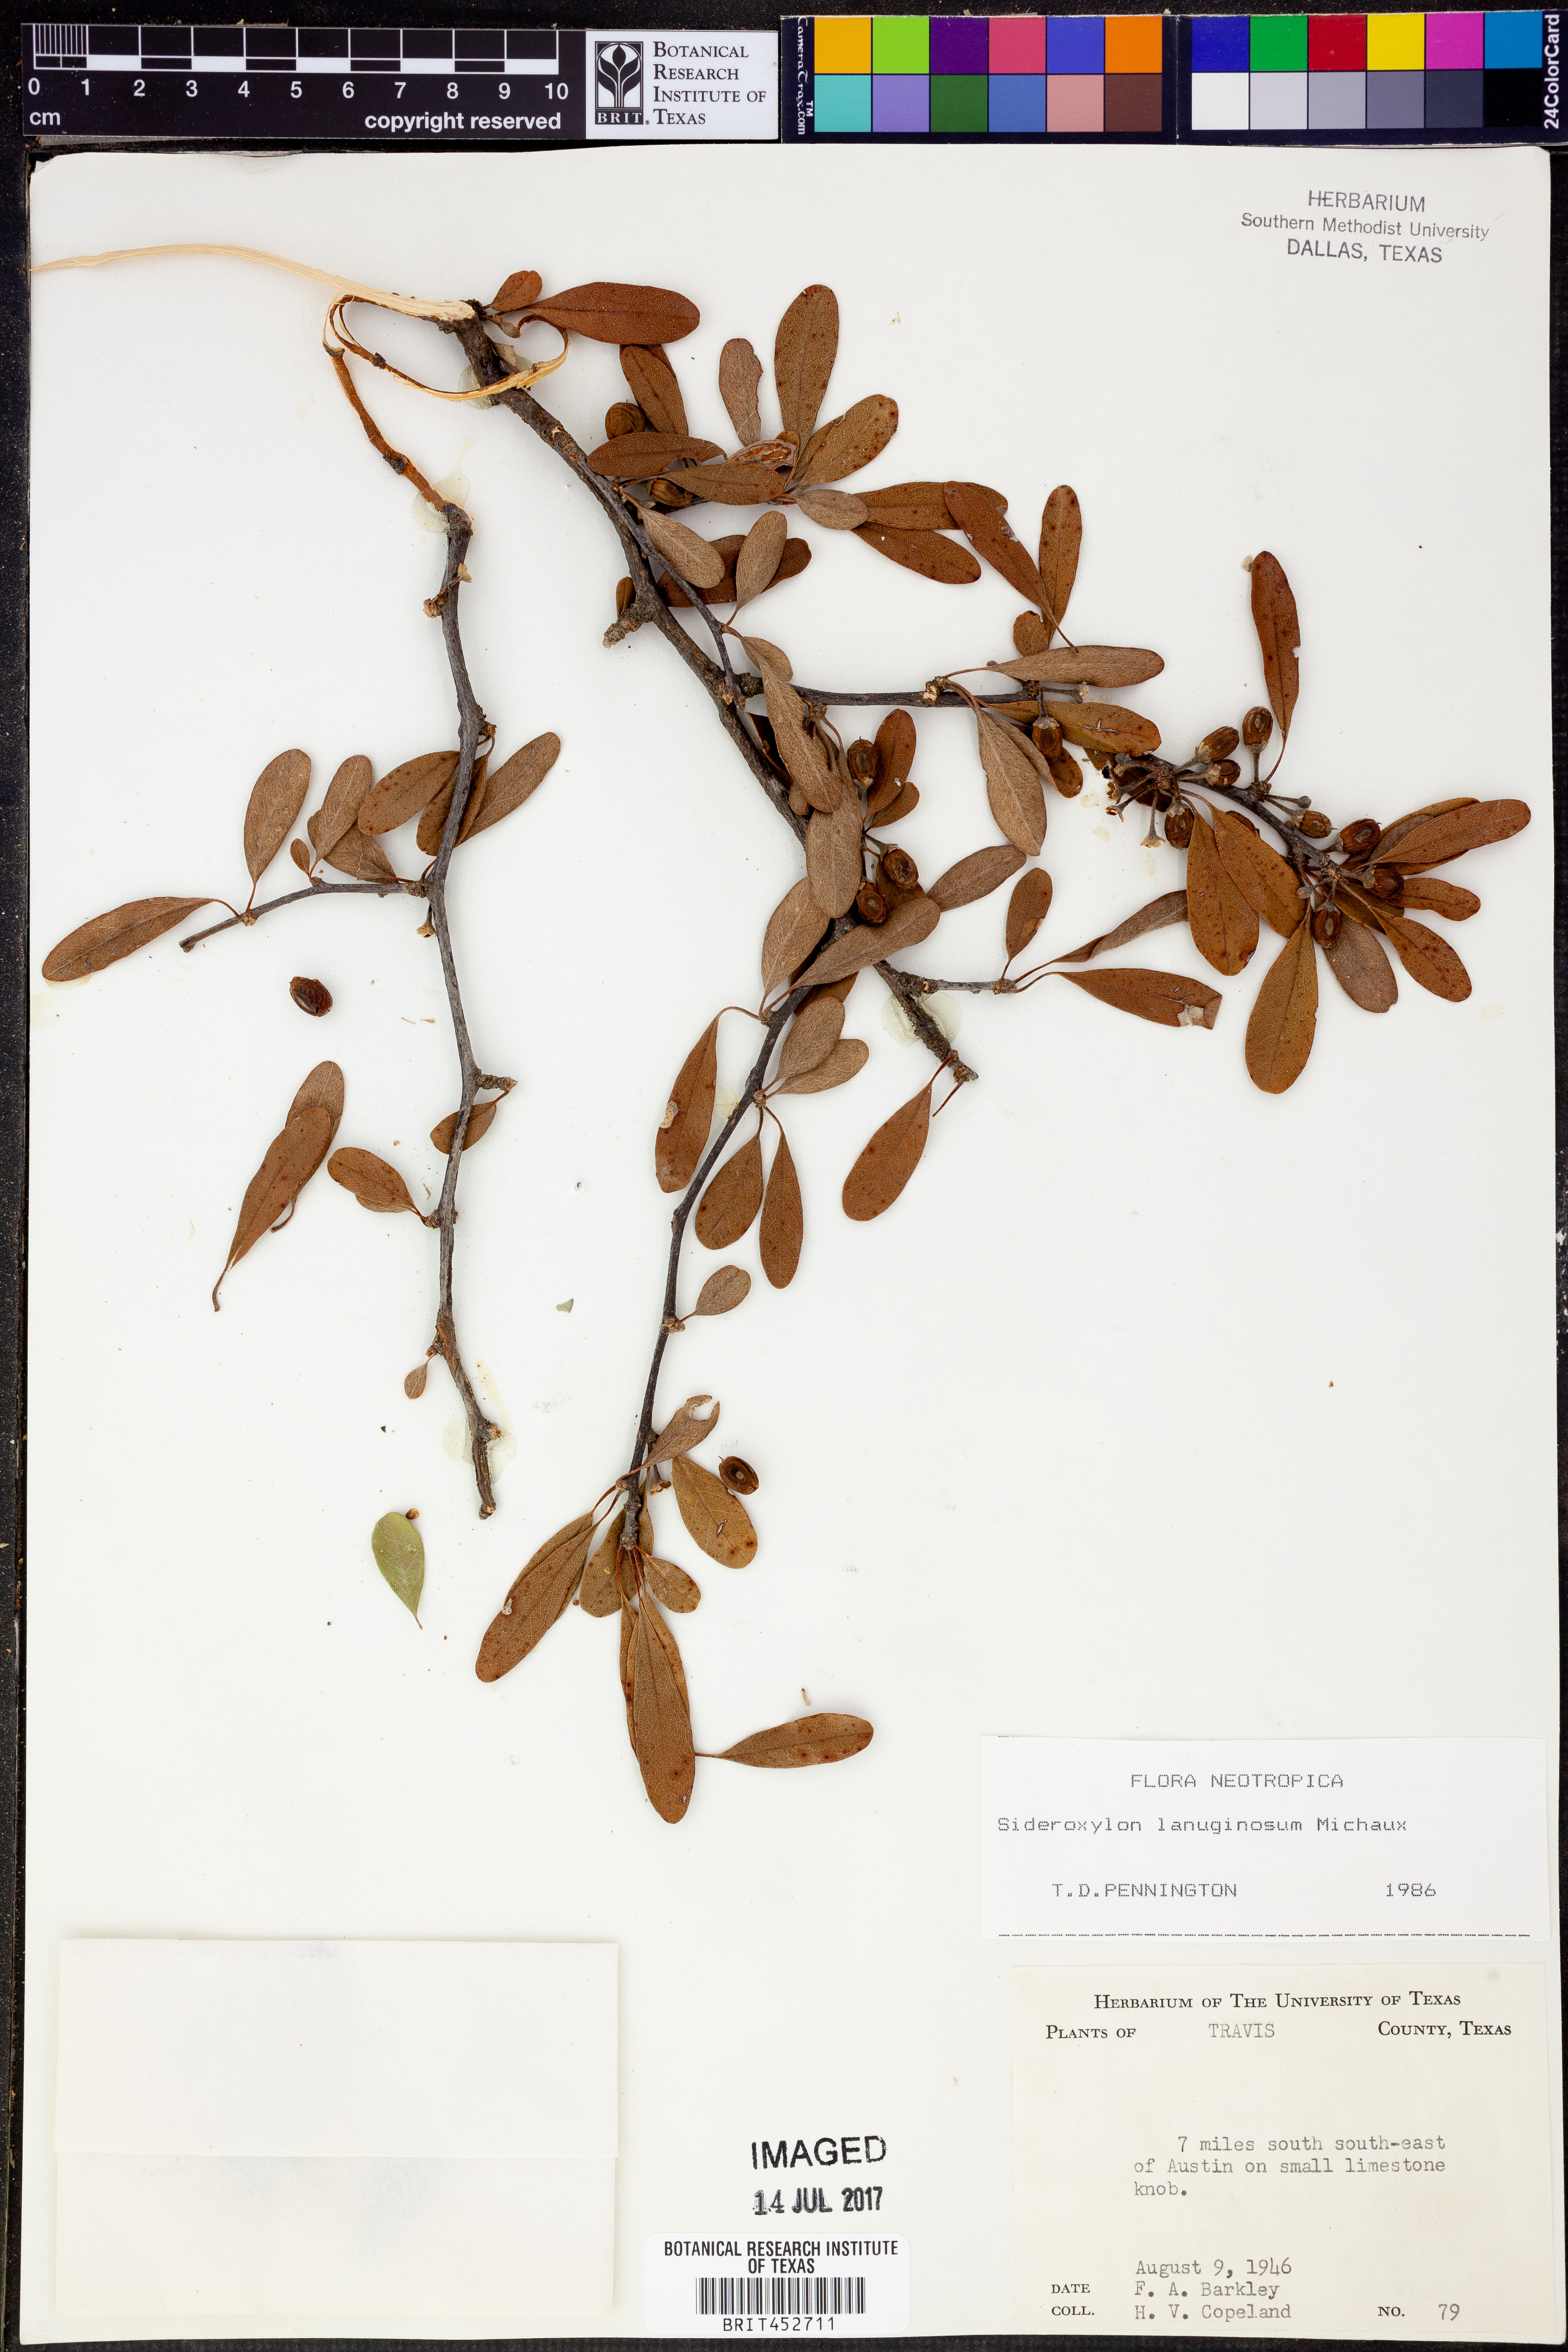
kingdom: Plantae
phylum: Tracheophyta
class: Magnoliopsida
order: Ericales
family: Sapotaceae
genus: Sideroxylon
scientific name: Sideroxylon lanuginosum
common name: Chittamwood
